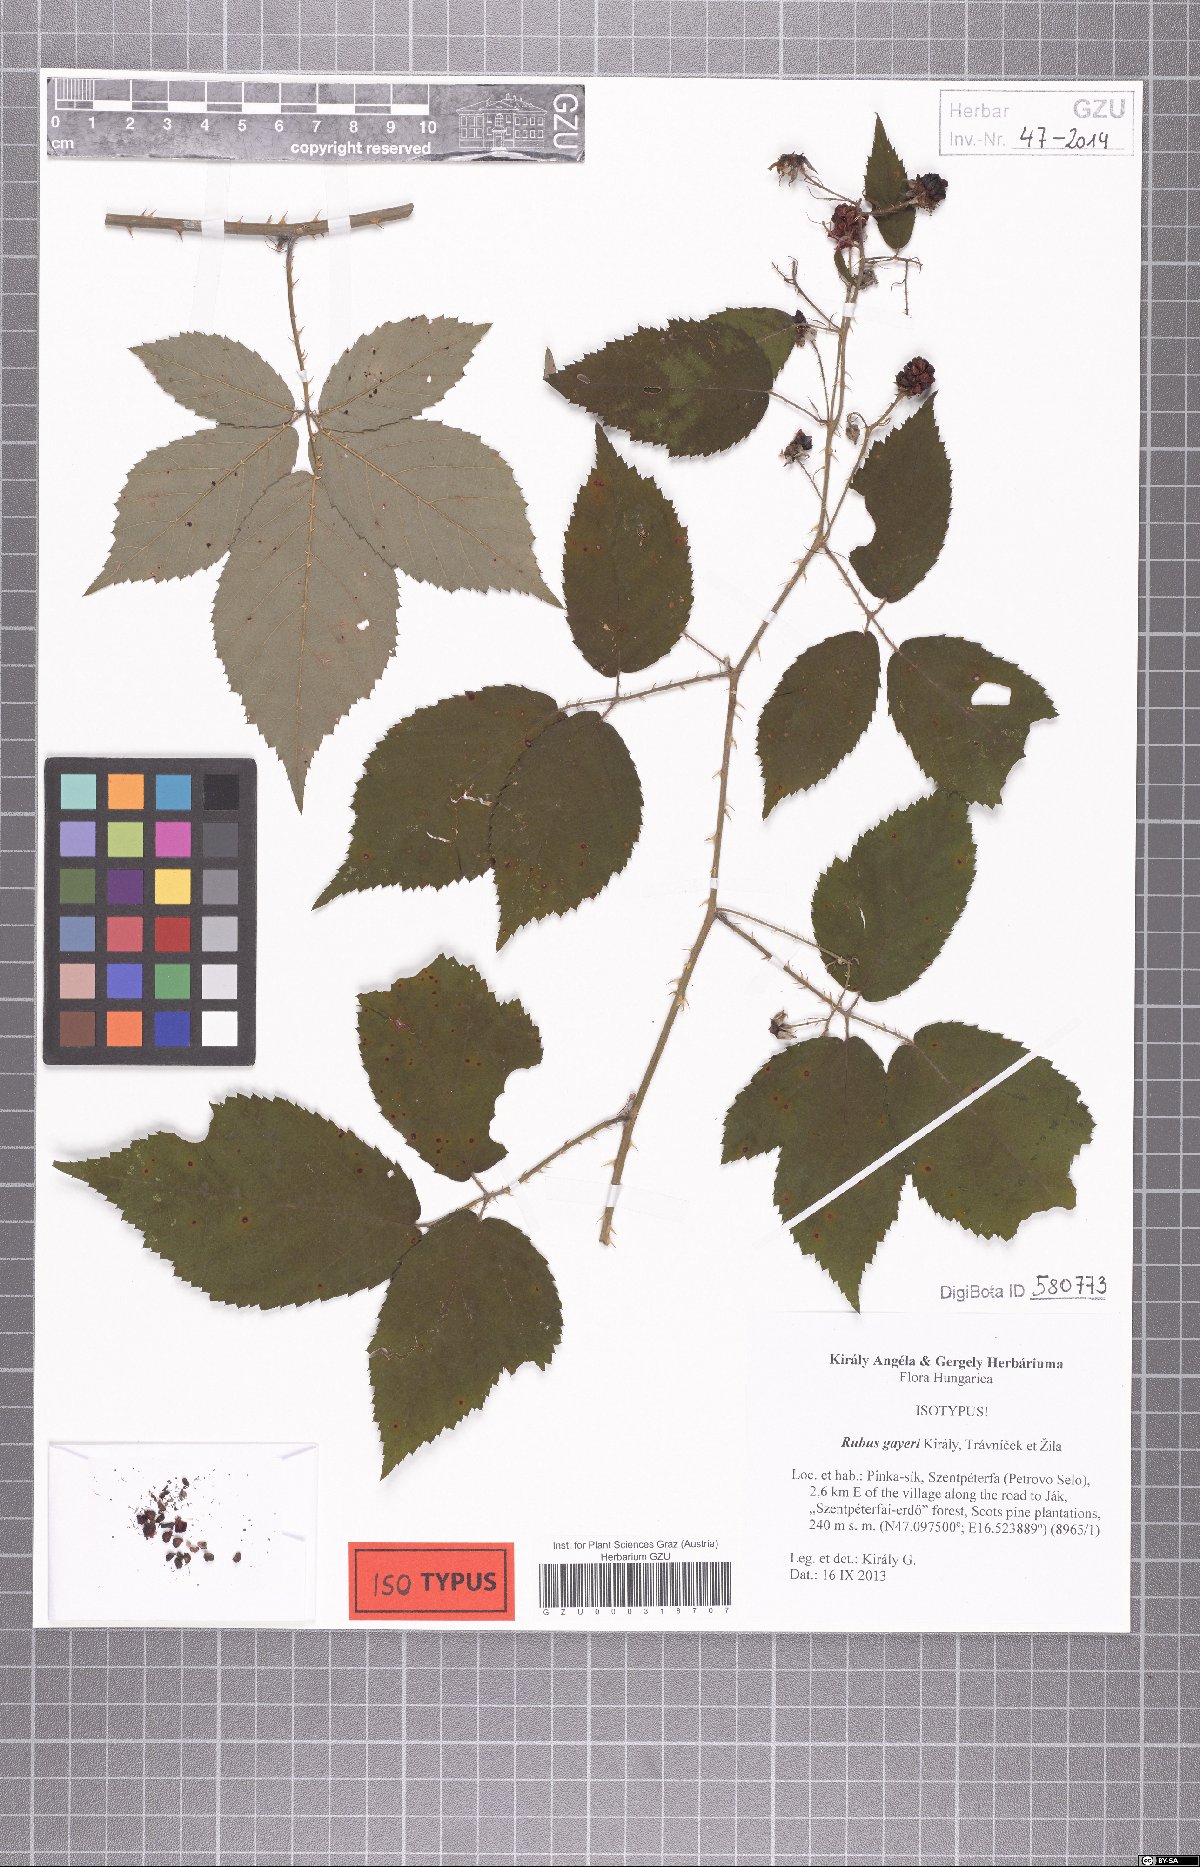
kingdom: Plantae
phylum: Tracheophyta
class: Magnoliopsida
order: Rosales
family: Rosaceae
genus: Rubus
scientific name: Rubus gayeri
